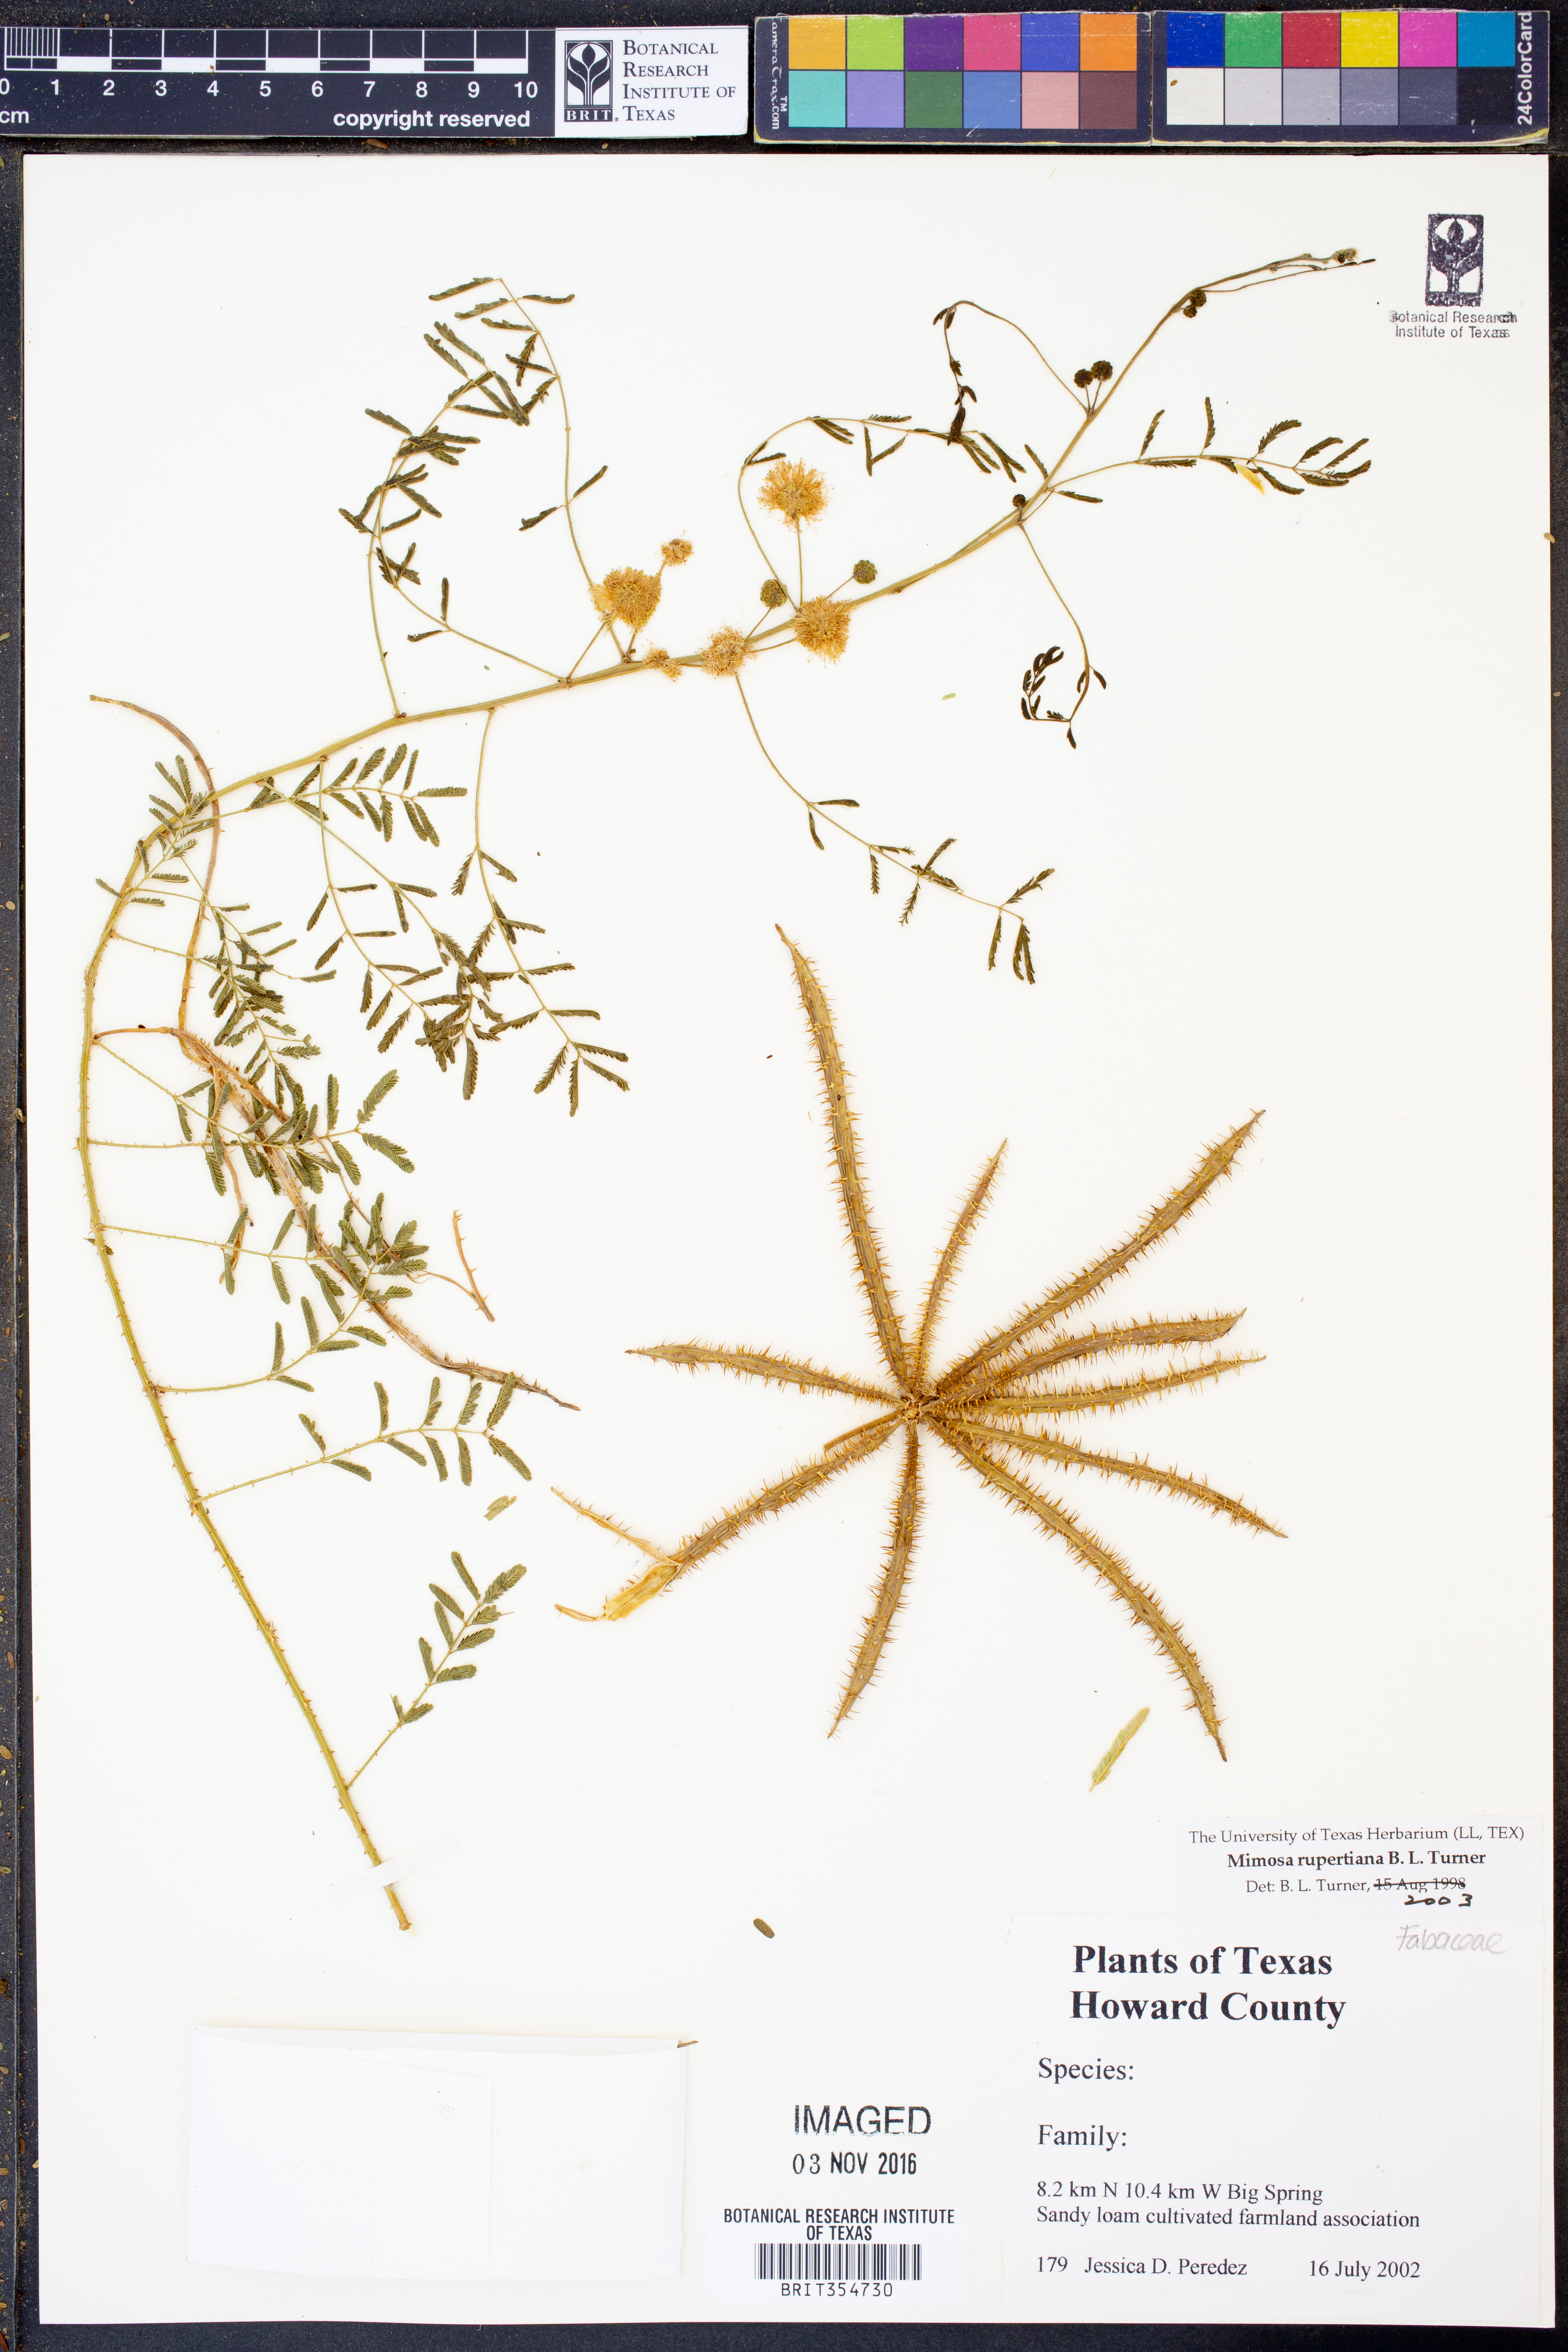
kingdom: Plantae
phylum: Tracheophyta
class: Magnoliopsida
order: Fabales
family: Fabaceae
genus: Mimosa
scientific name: Mimosa quadrivalvis
